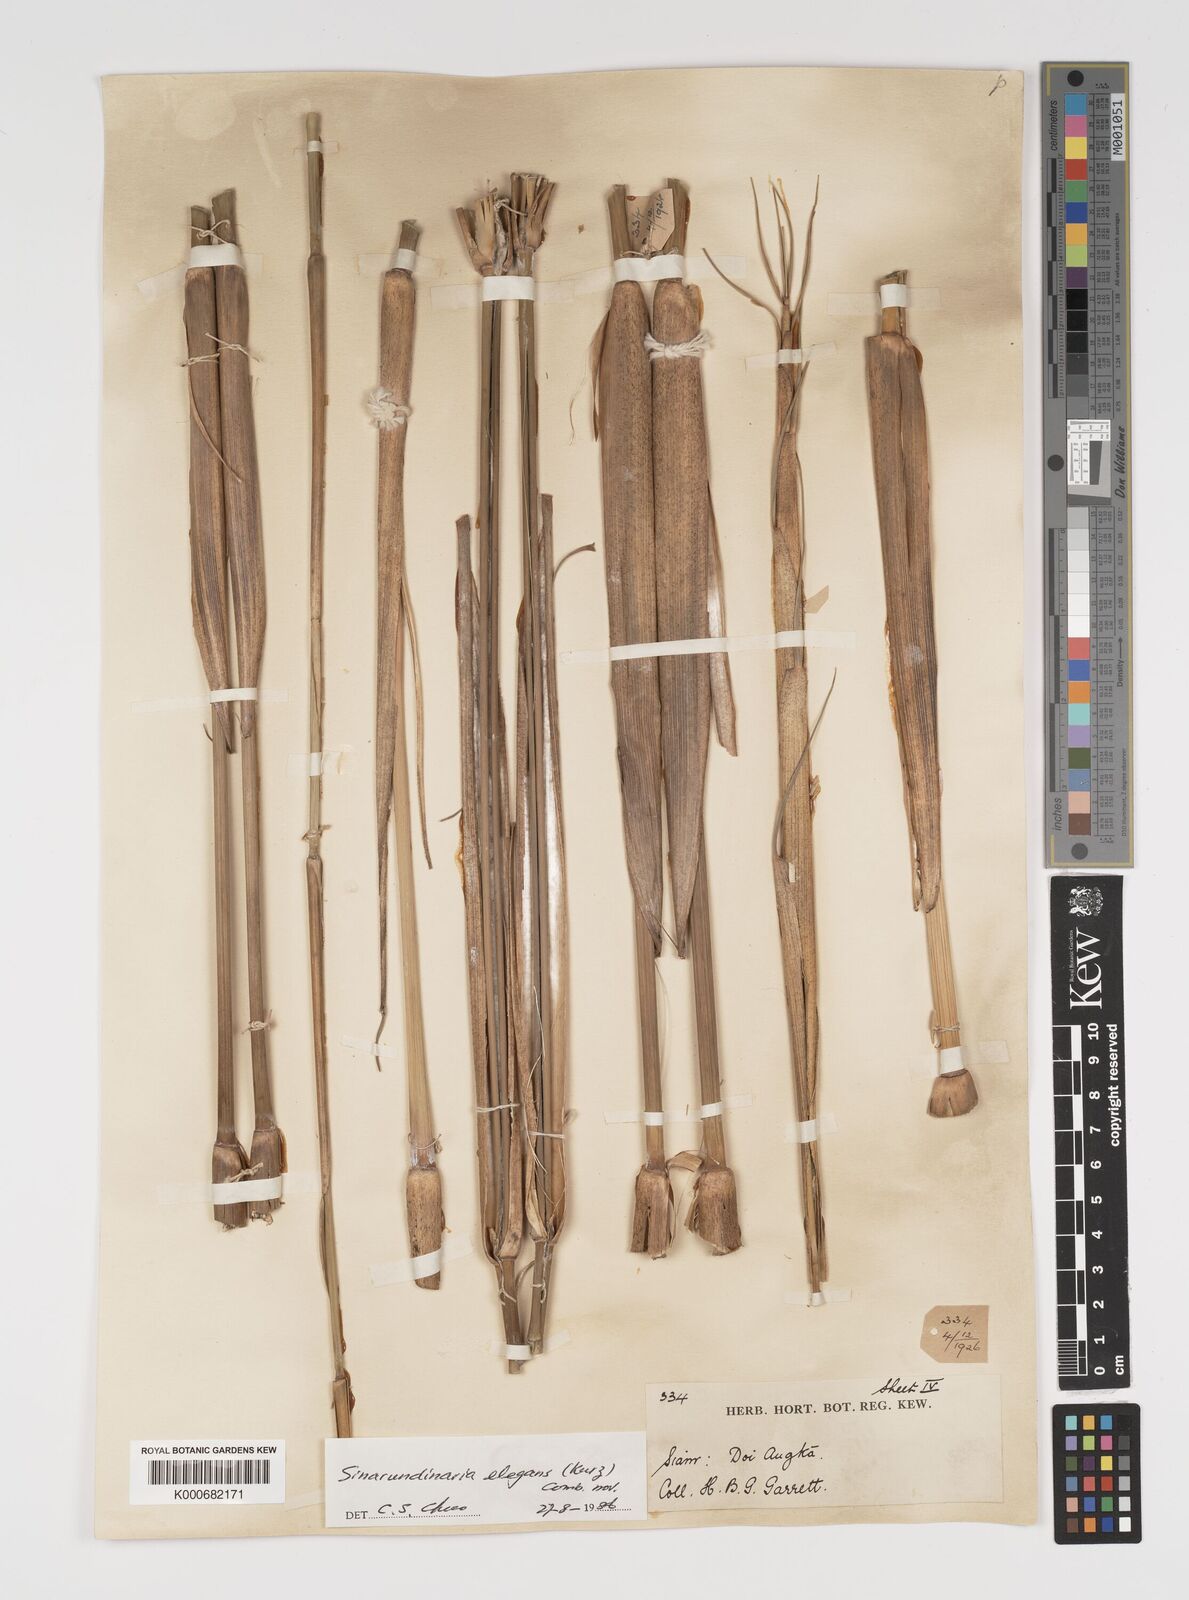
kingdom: Plantae
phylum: Tracheophyta
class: Liliopsida
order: Poales
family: Poaceae
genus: Yushania
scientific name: Yushania schmidiana
